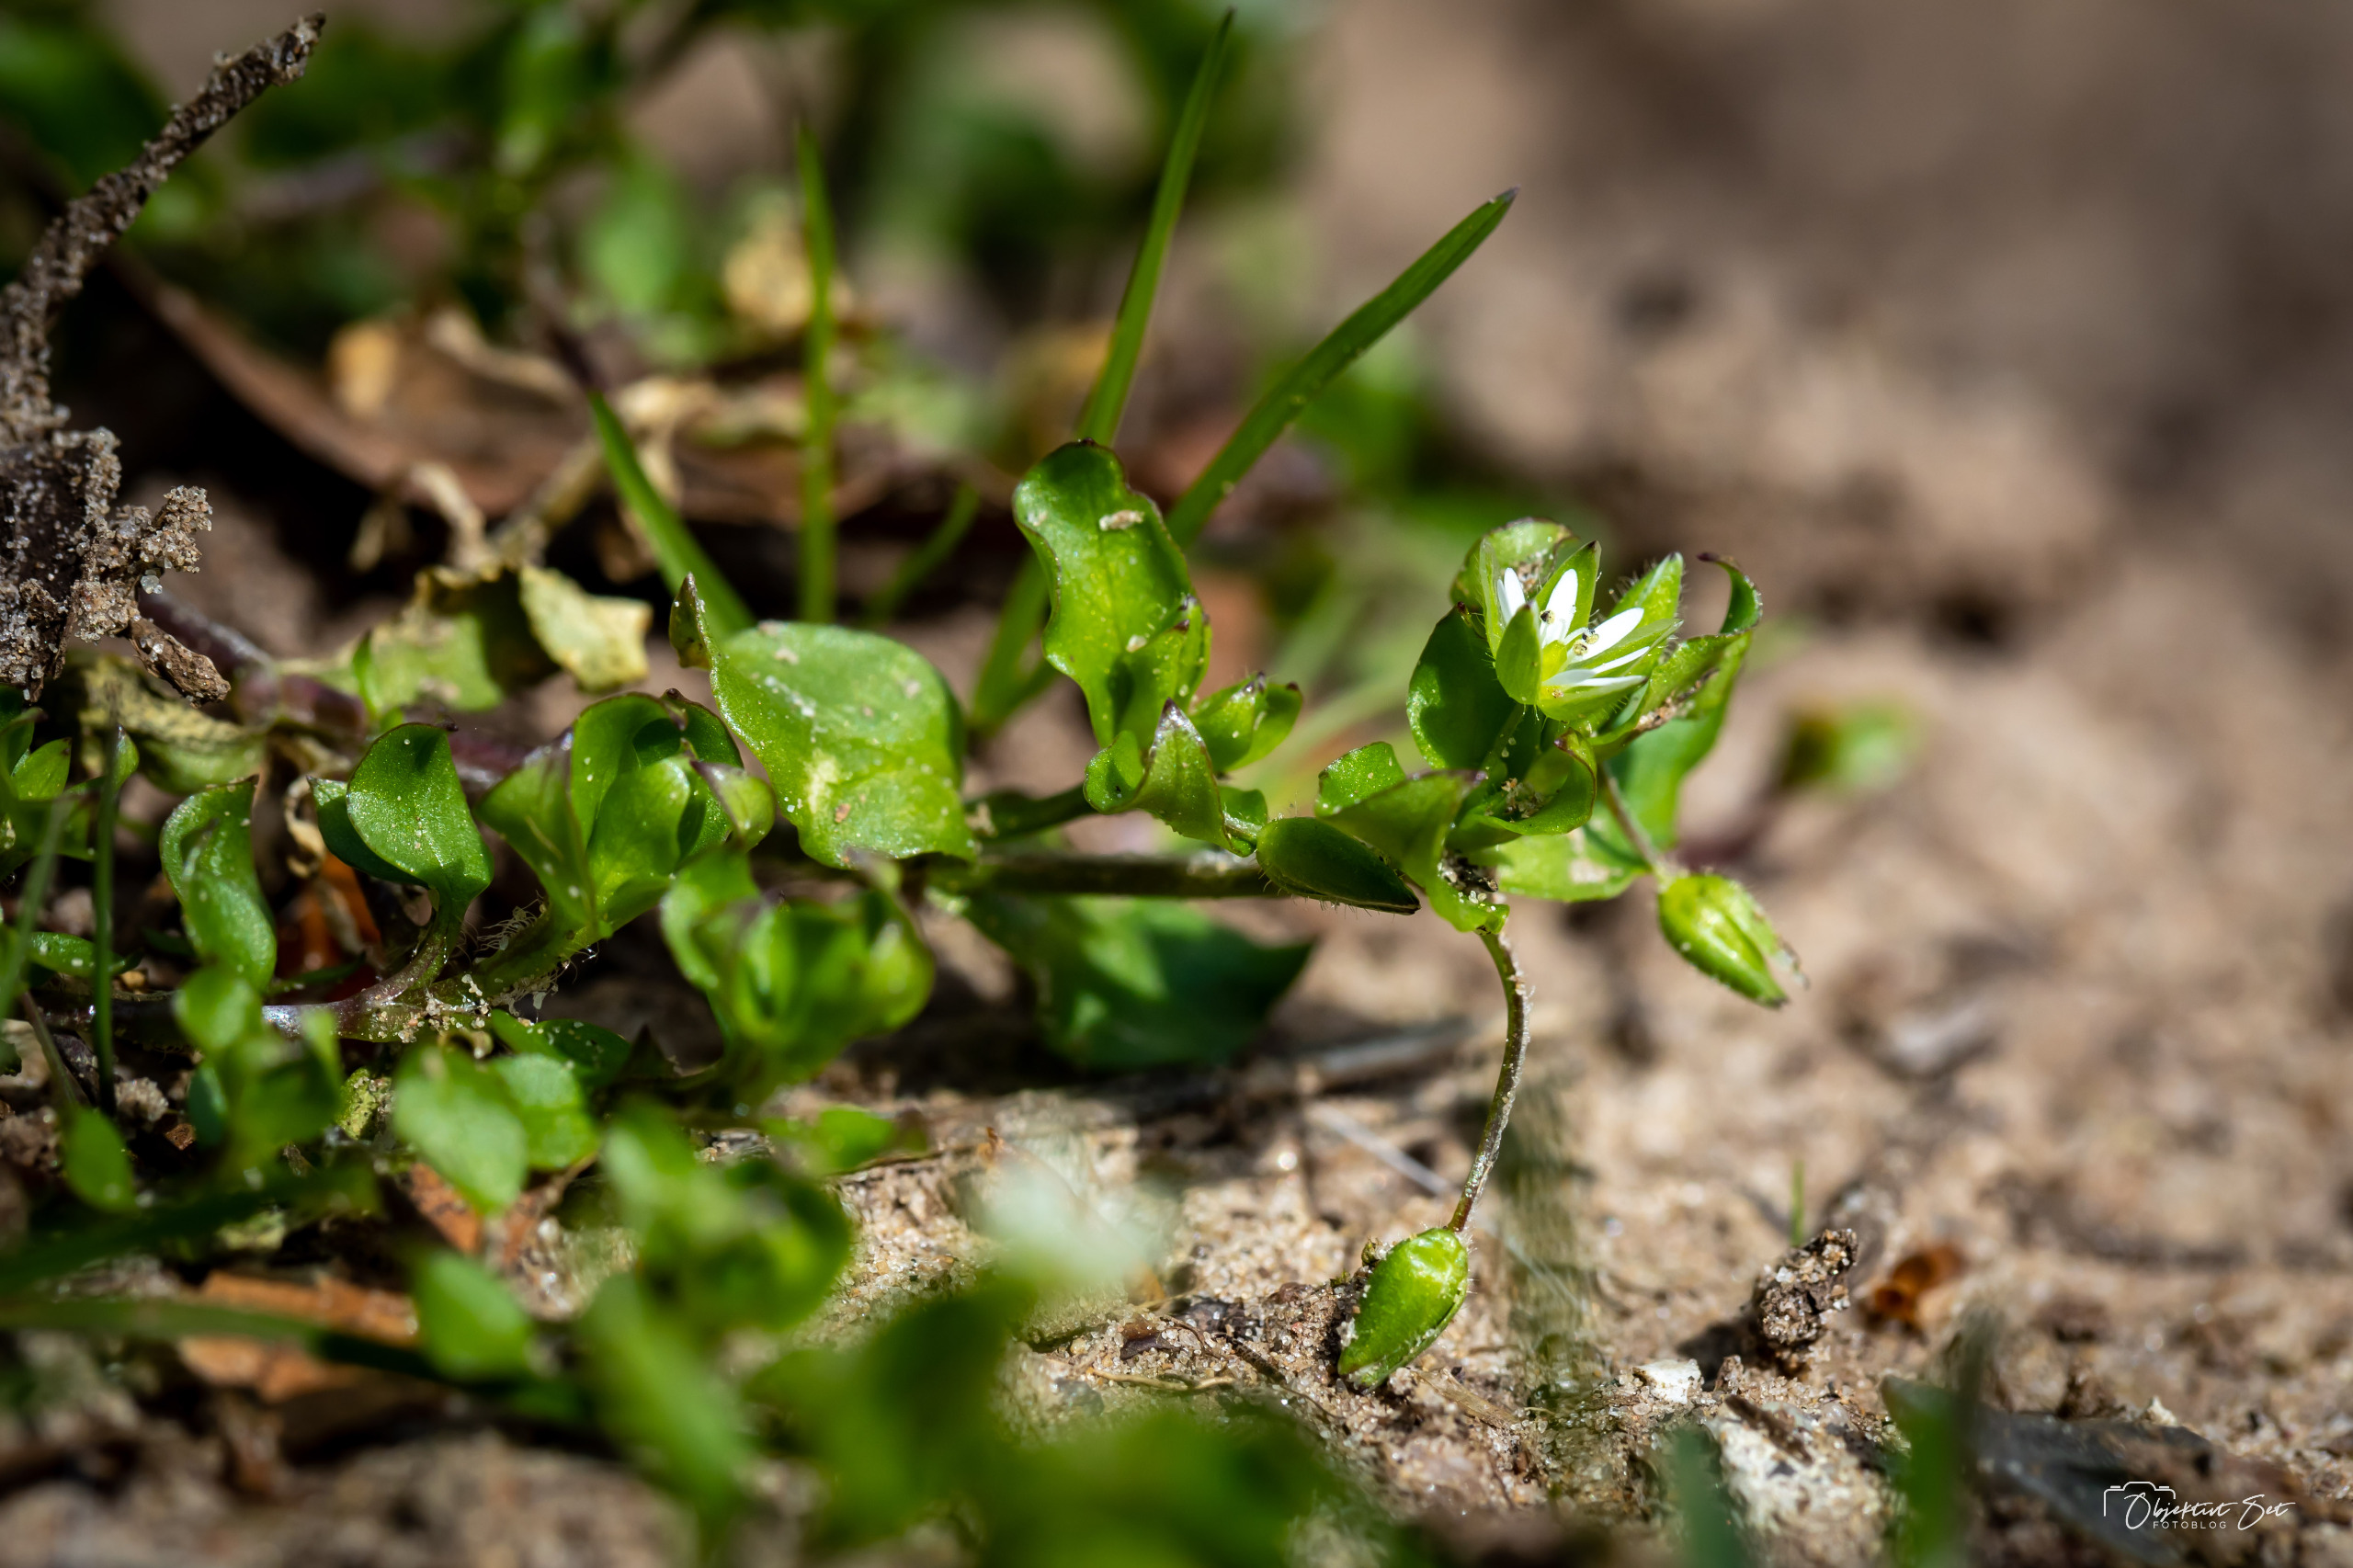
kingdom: Plantae
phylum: Tracheophyta
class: Magnoliopsida
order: Caryophyllales
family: Caryophyllaceae
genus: Stellaria
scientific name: Stellaria media
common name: Almindelig fuglegræs
